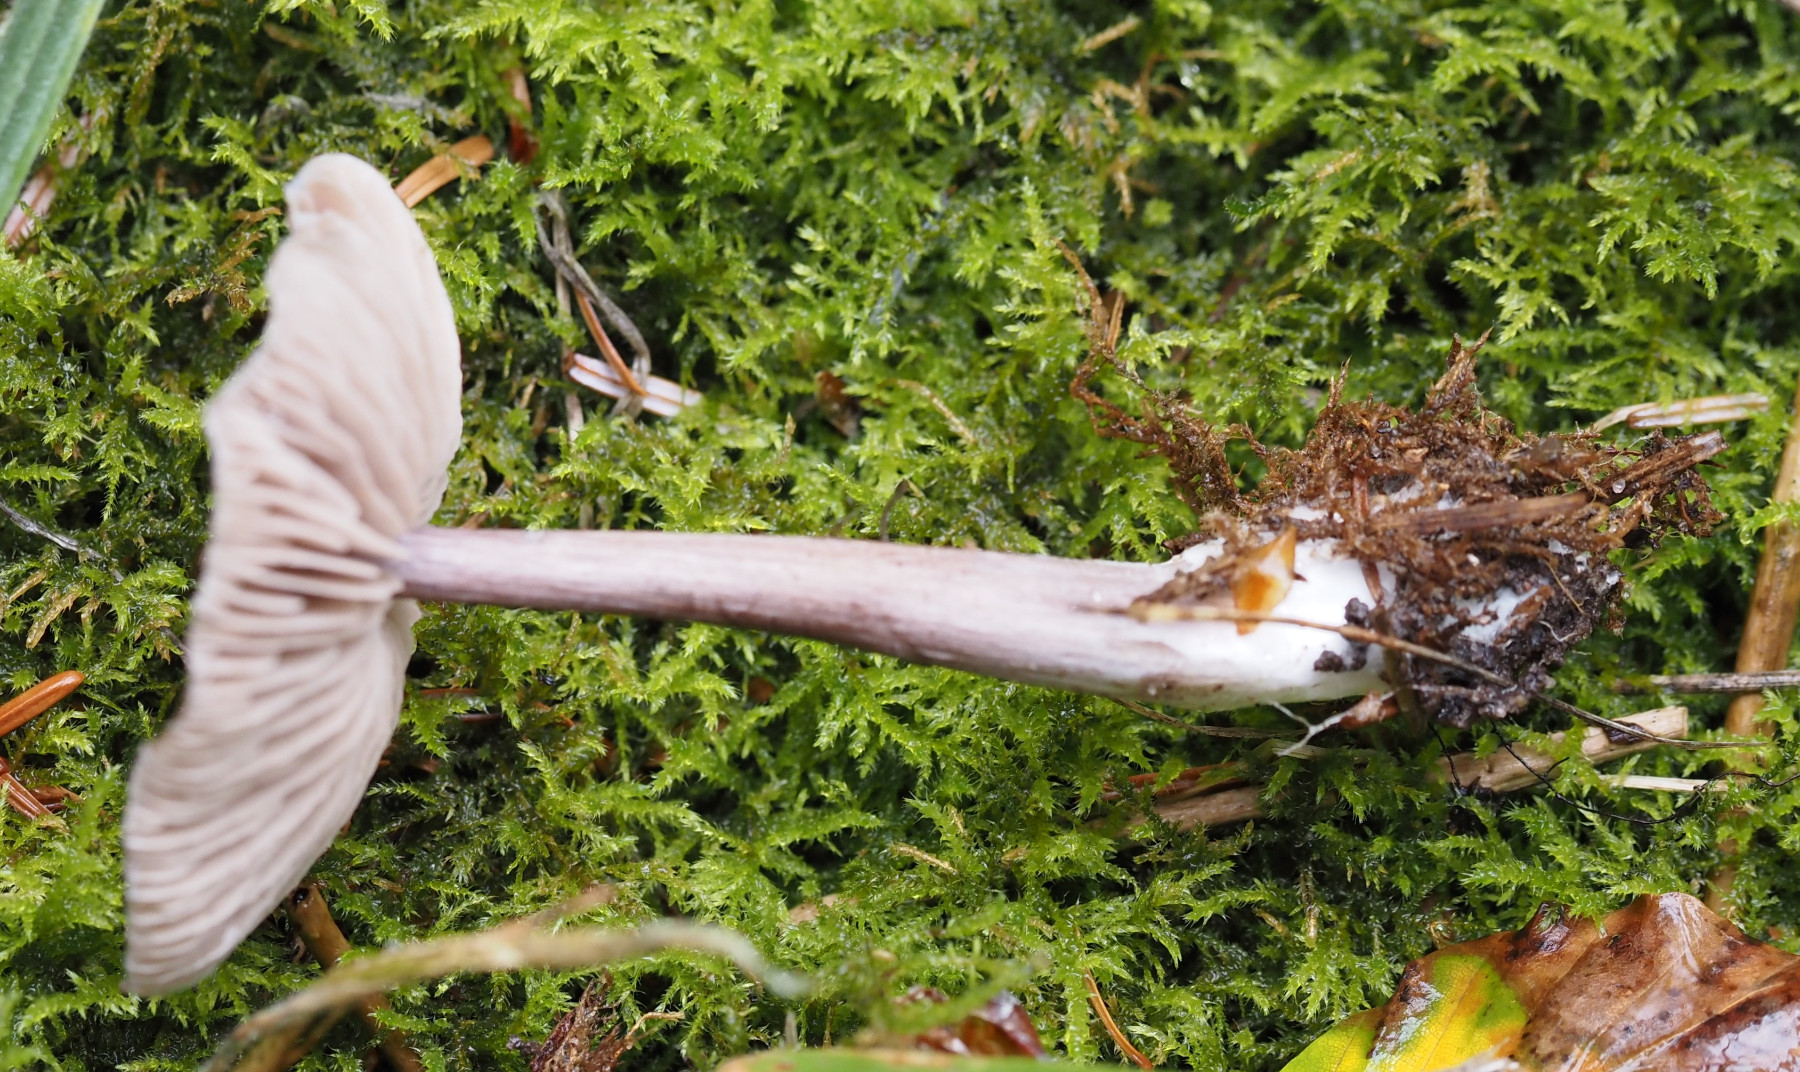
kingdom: Fungi
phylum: Basidiomycota
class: Agaricomycetes
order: Agaricales
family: Entolomataceae
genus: Entoloma
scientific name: Entoloma waverenii
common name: trævlet rødblad
